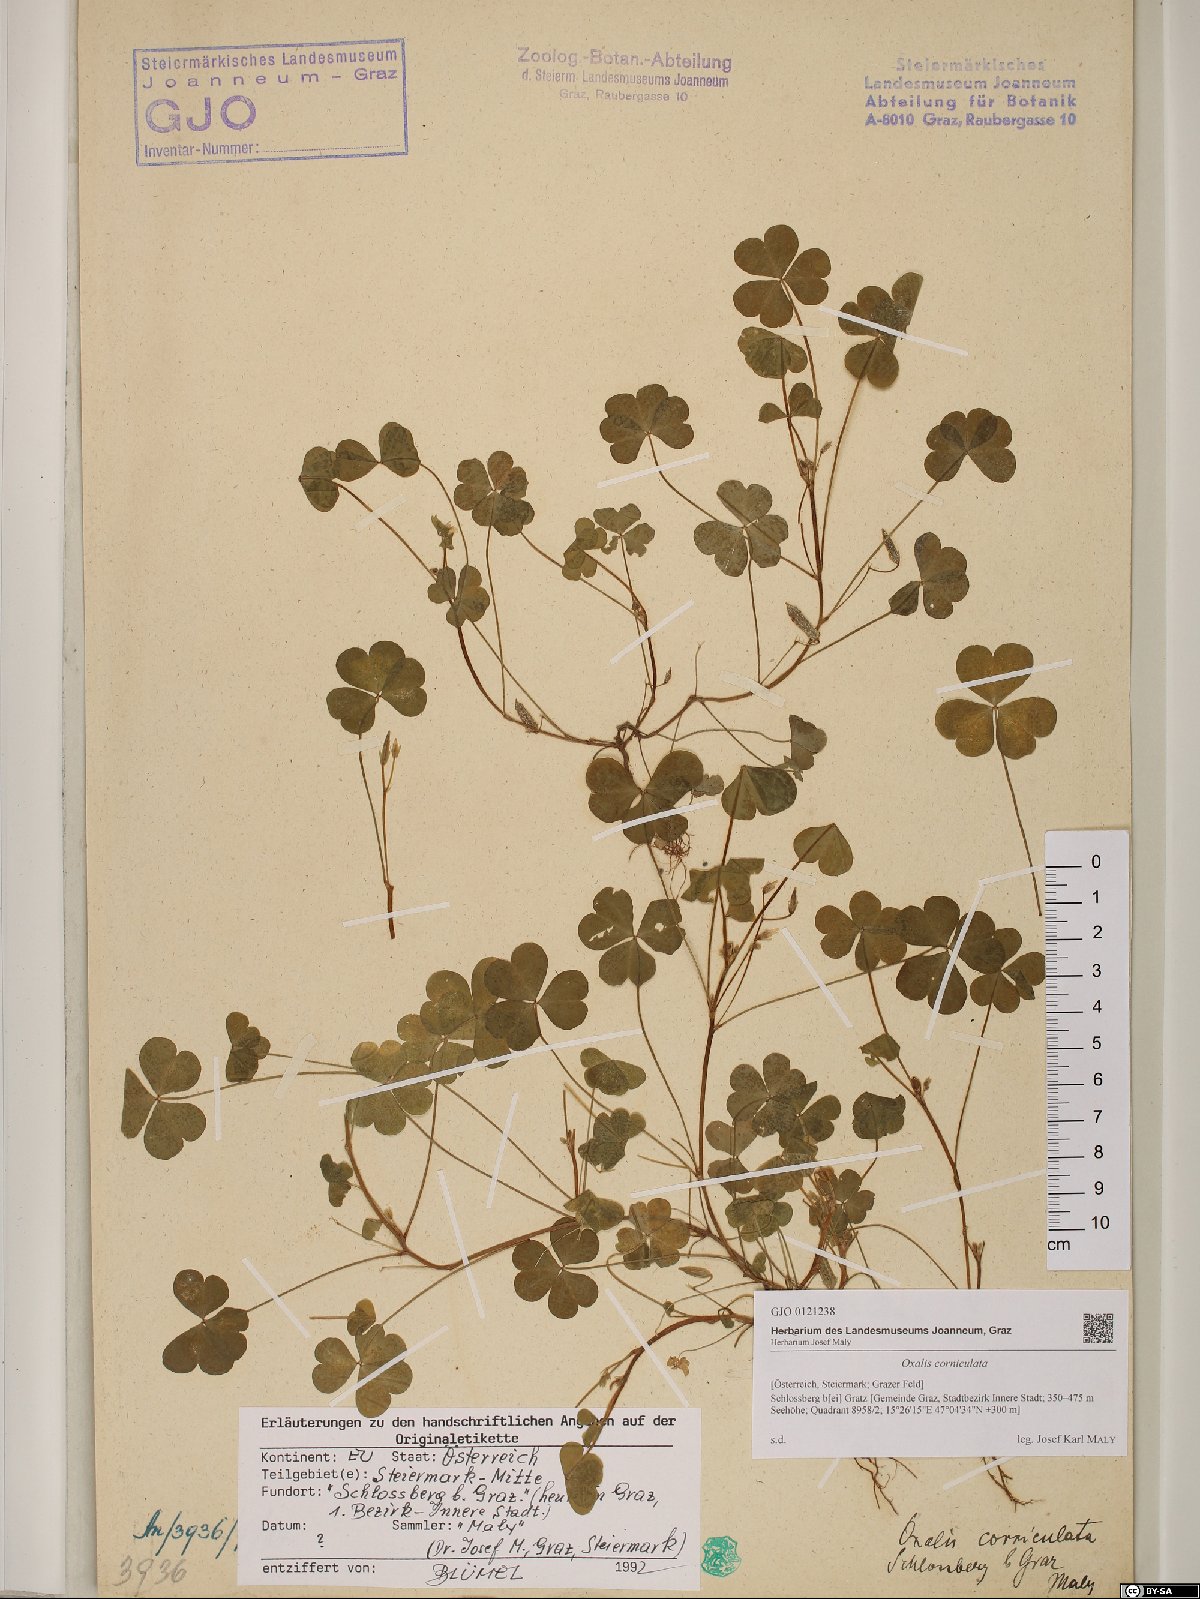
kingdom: Plantae
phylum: Tracheophyta
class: Magnoliopsida
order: Oxalidales
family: Oxalidaceae
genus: Oxalis
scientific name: Oxalis corniculata
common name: Procumbent yellow-sorrel
